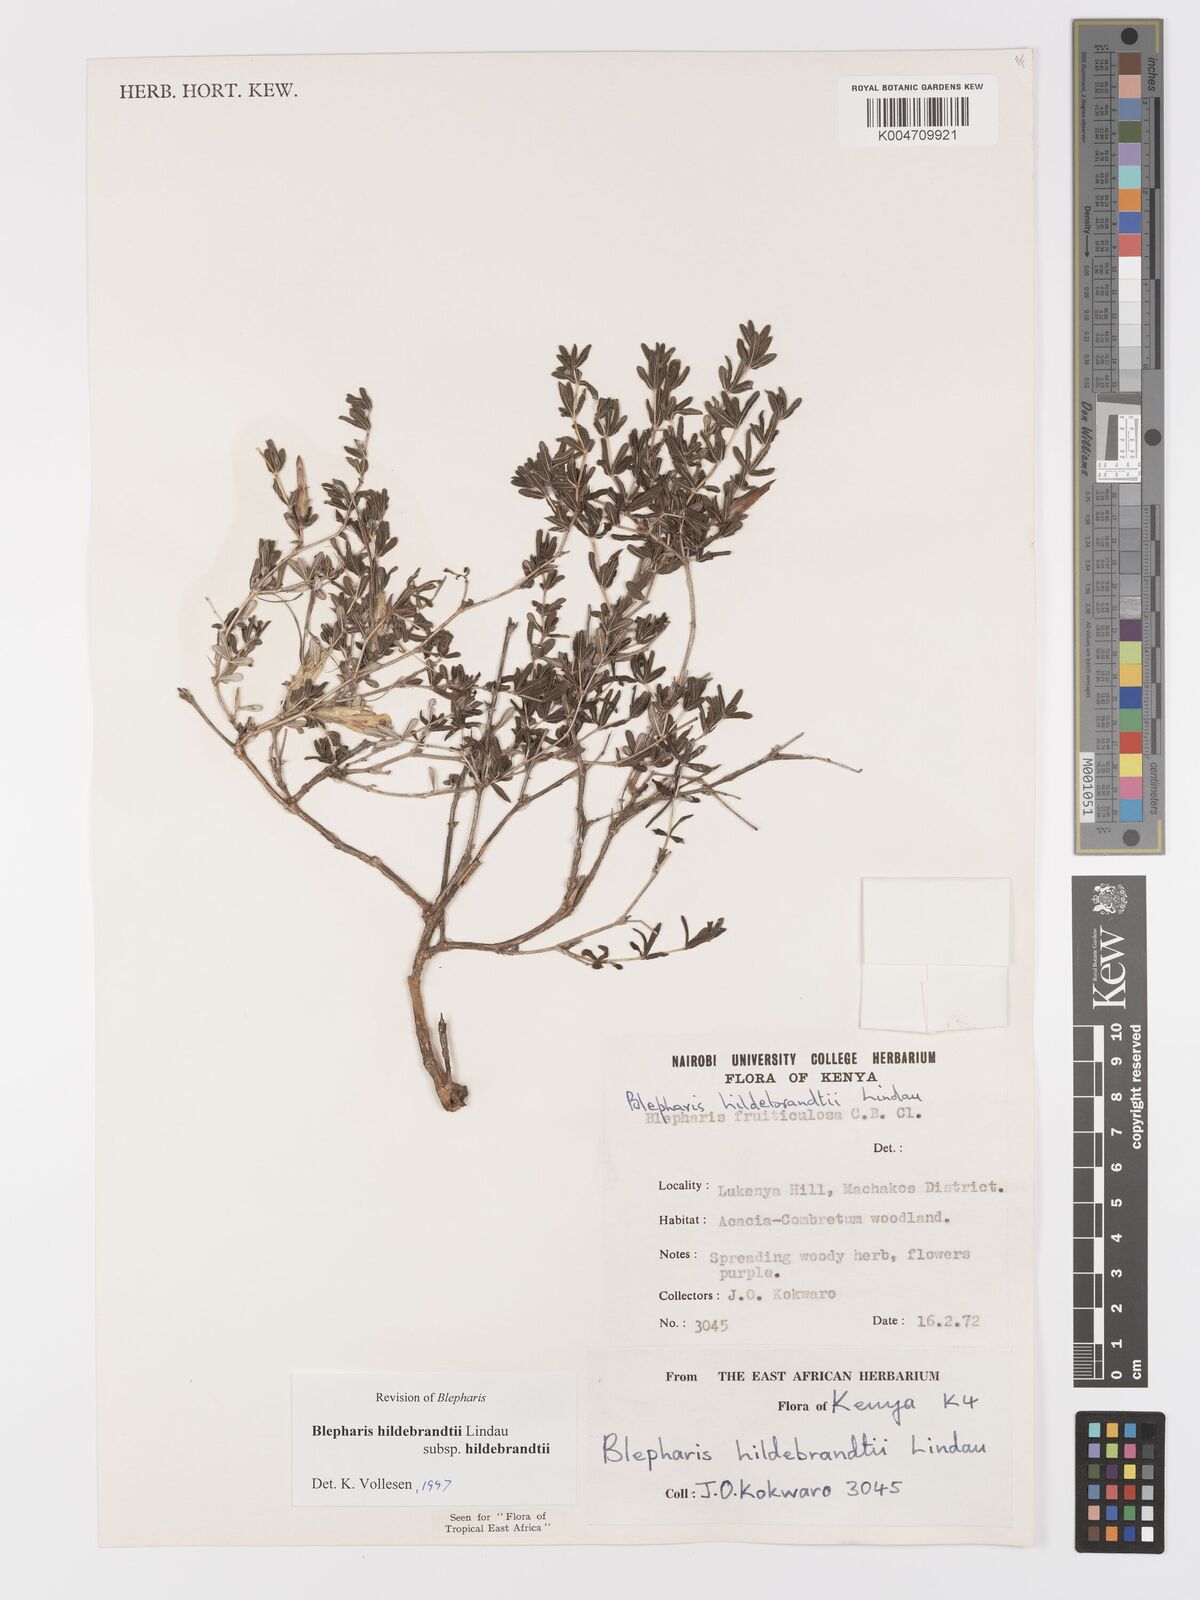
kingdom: Plantae
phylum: Tracheophyta
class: Magnoliopsida
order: Lamiales
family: Acanthaceae
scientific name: Acanthaceae
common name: Acanthaceae
